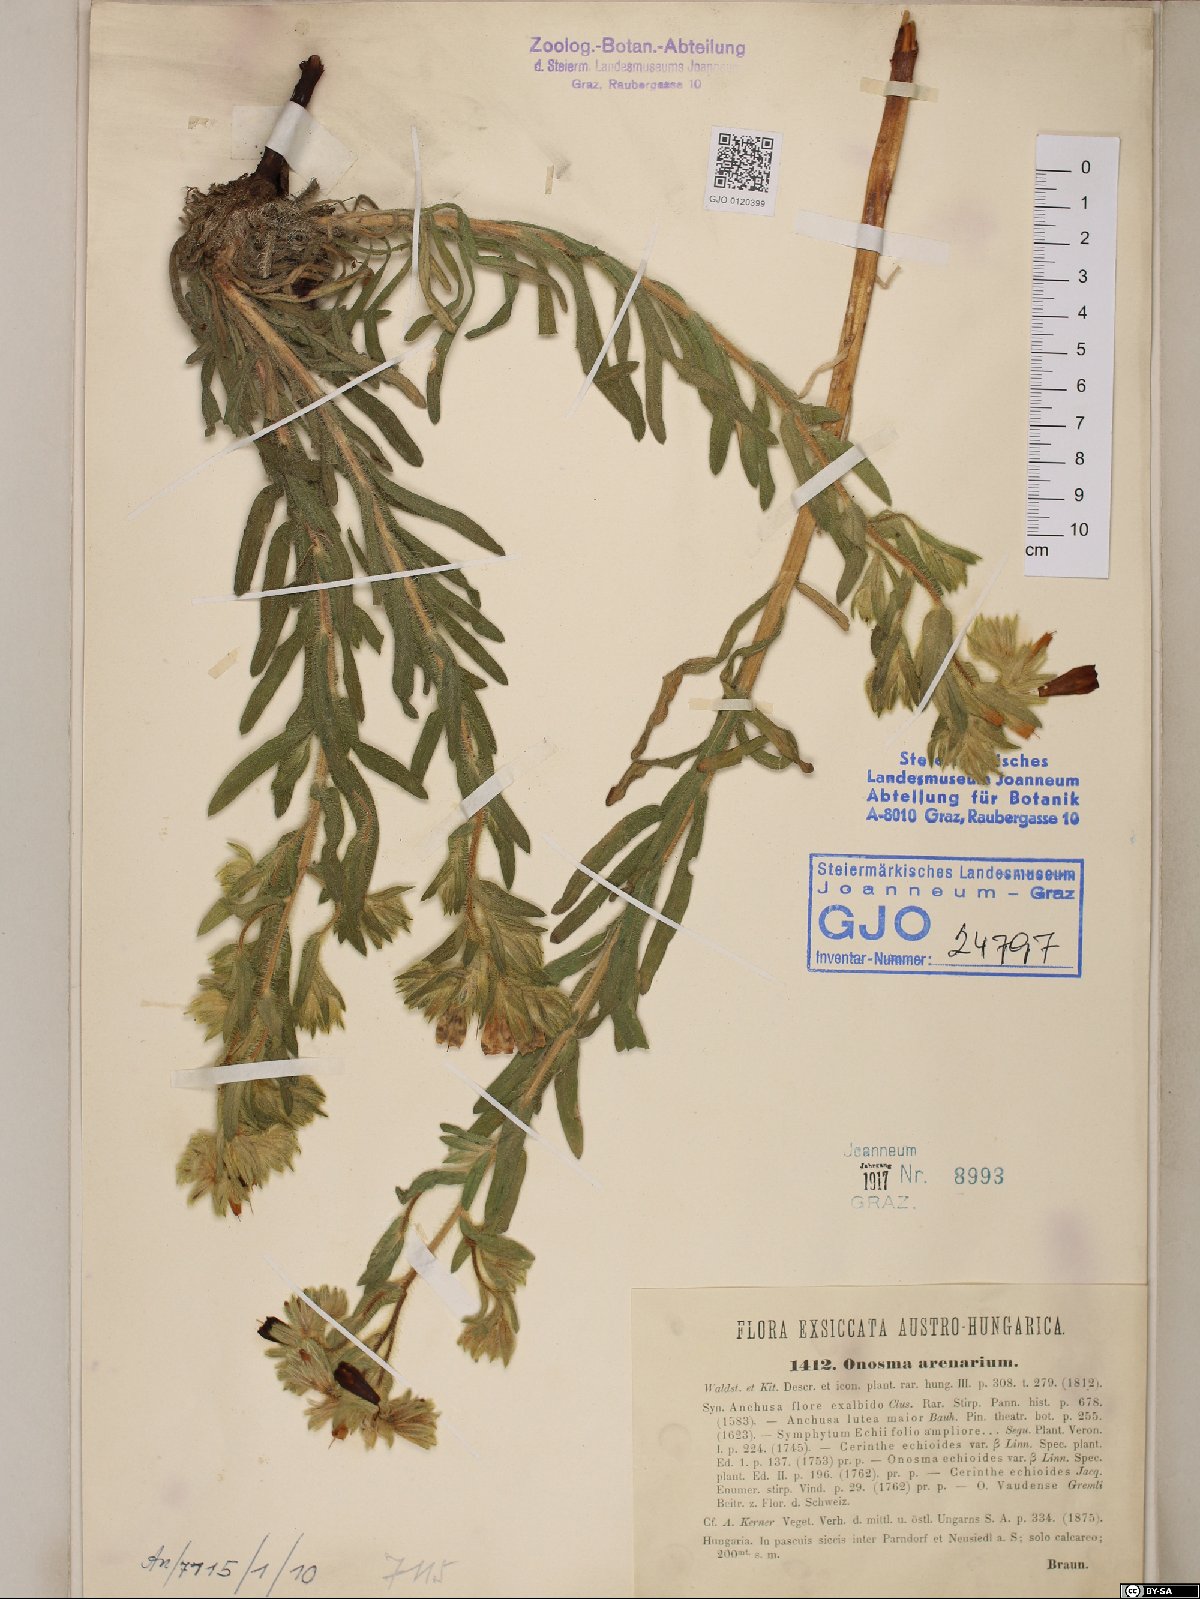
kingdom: Plantae
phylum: Tracheophyta
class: Magnoliopsida
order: Boraginales
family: Boraginaceae
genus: Onosma
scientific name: Onosma arenaria
